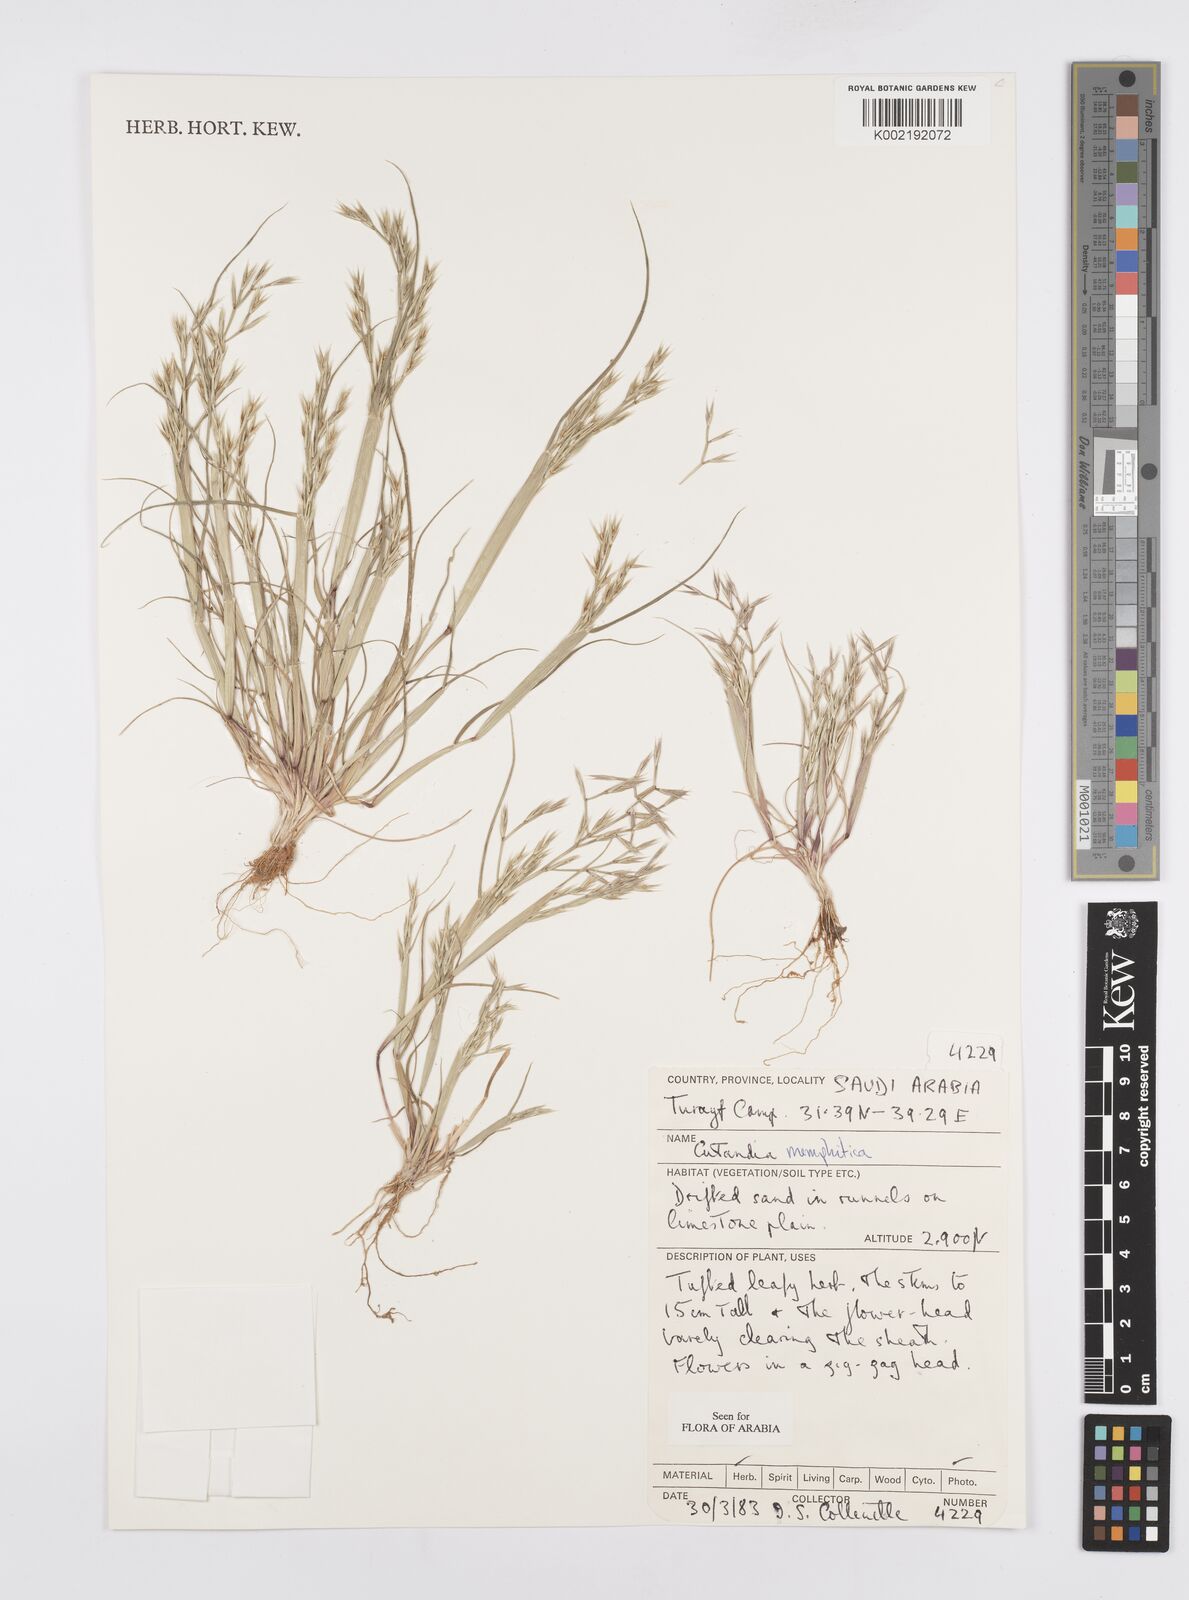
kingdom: Plantae
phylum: Tracheophyta
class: Liliopsida
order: Poales
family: Poaceae
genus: Cutandia
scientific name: Cutandia memphitica
